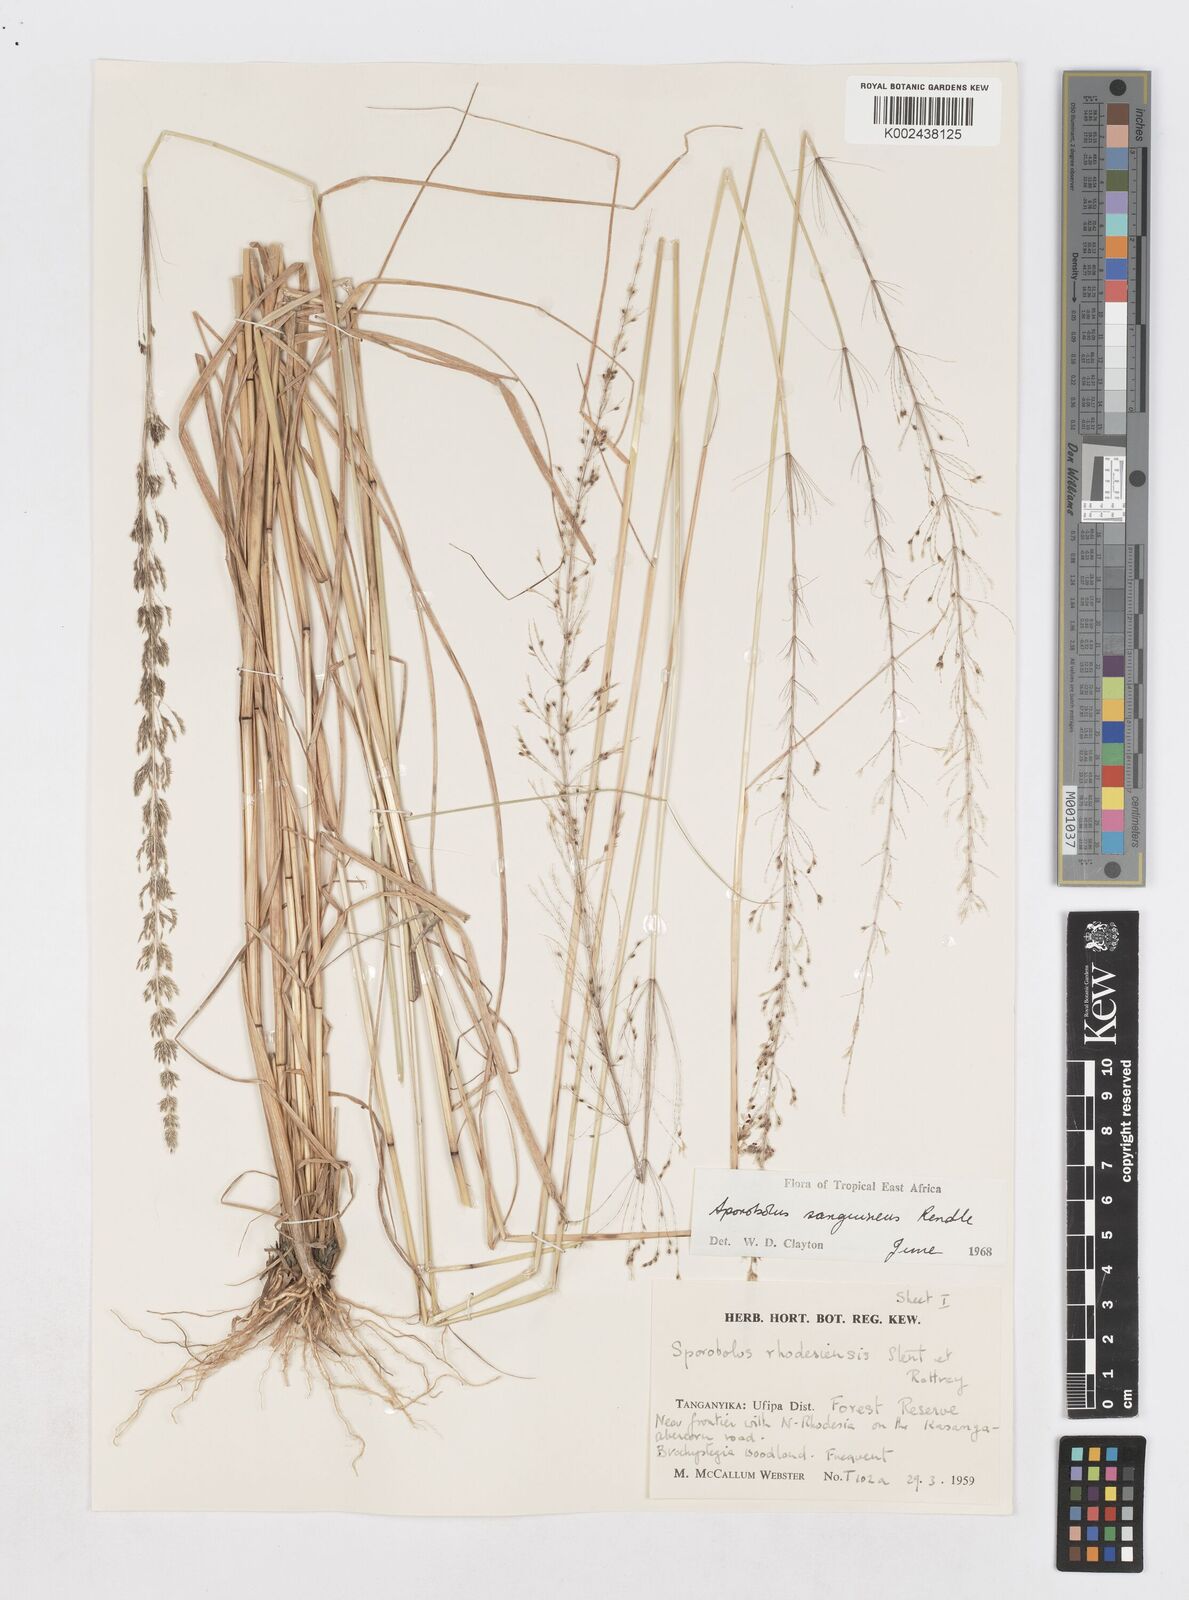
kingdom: Plantae
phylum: Tracheophyta
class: Liliopsida
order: Poales
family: Poaceae
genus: Sporobolus
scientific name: Sporobolus sanguineus
